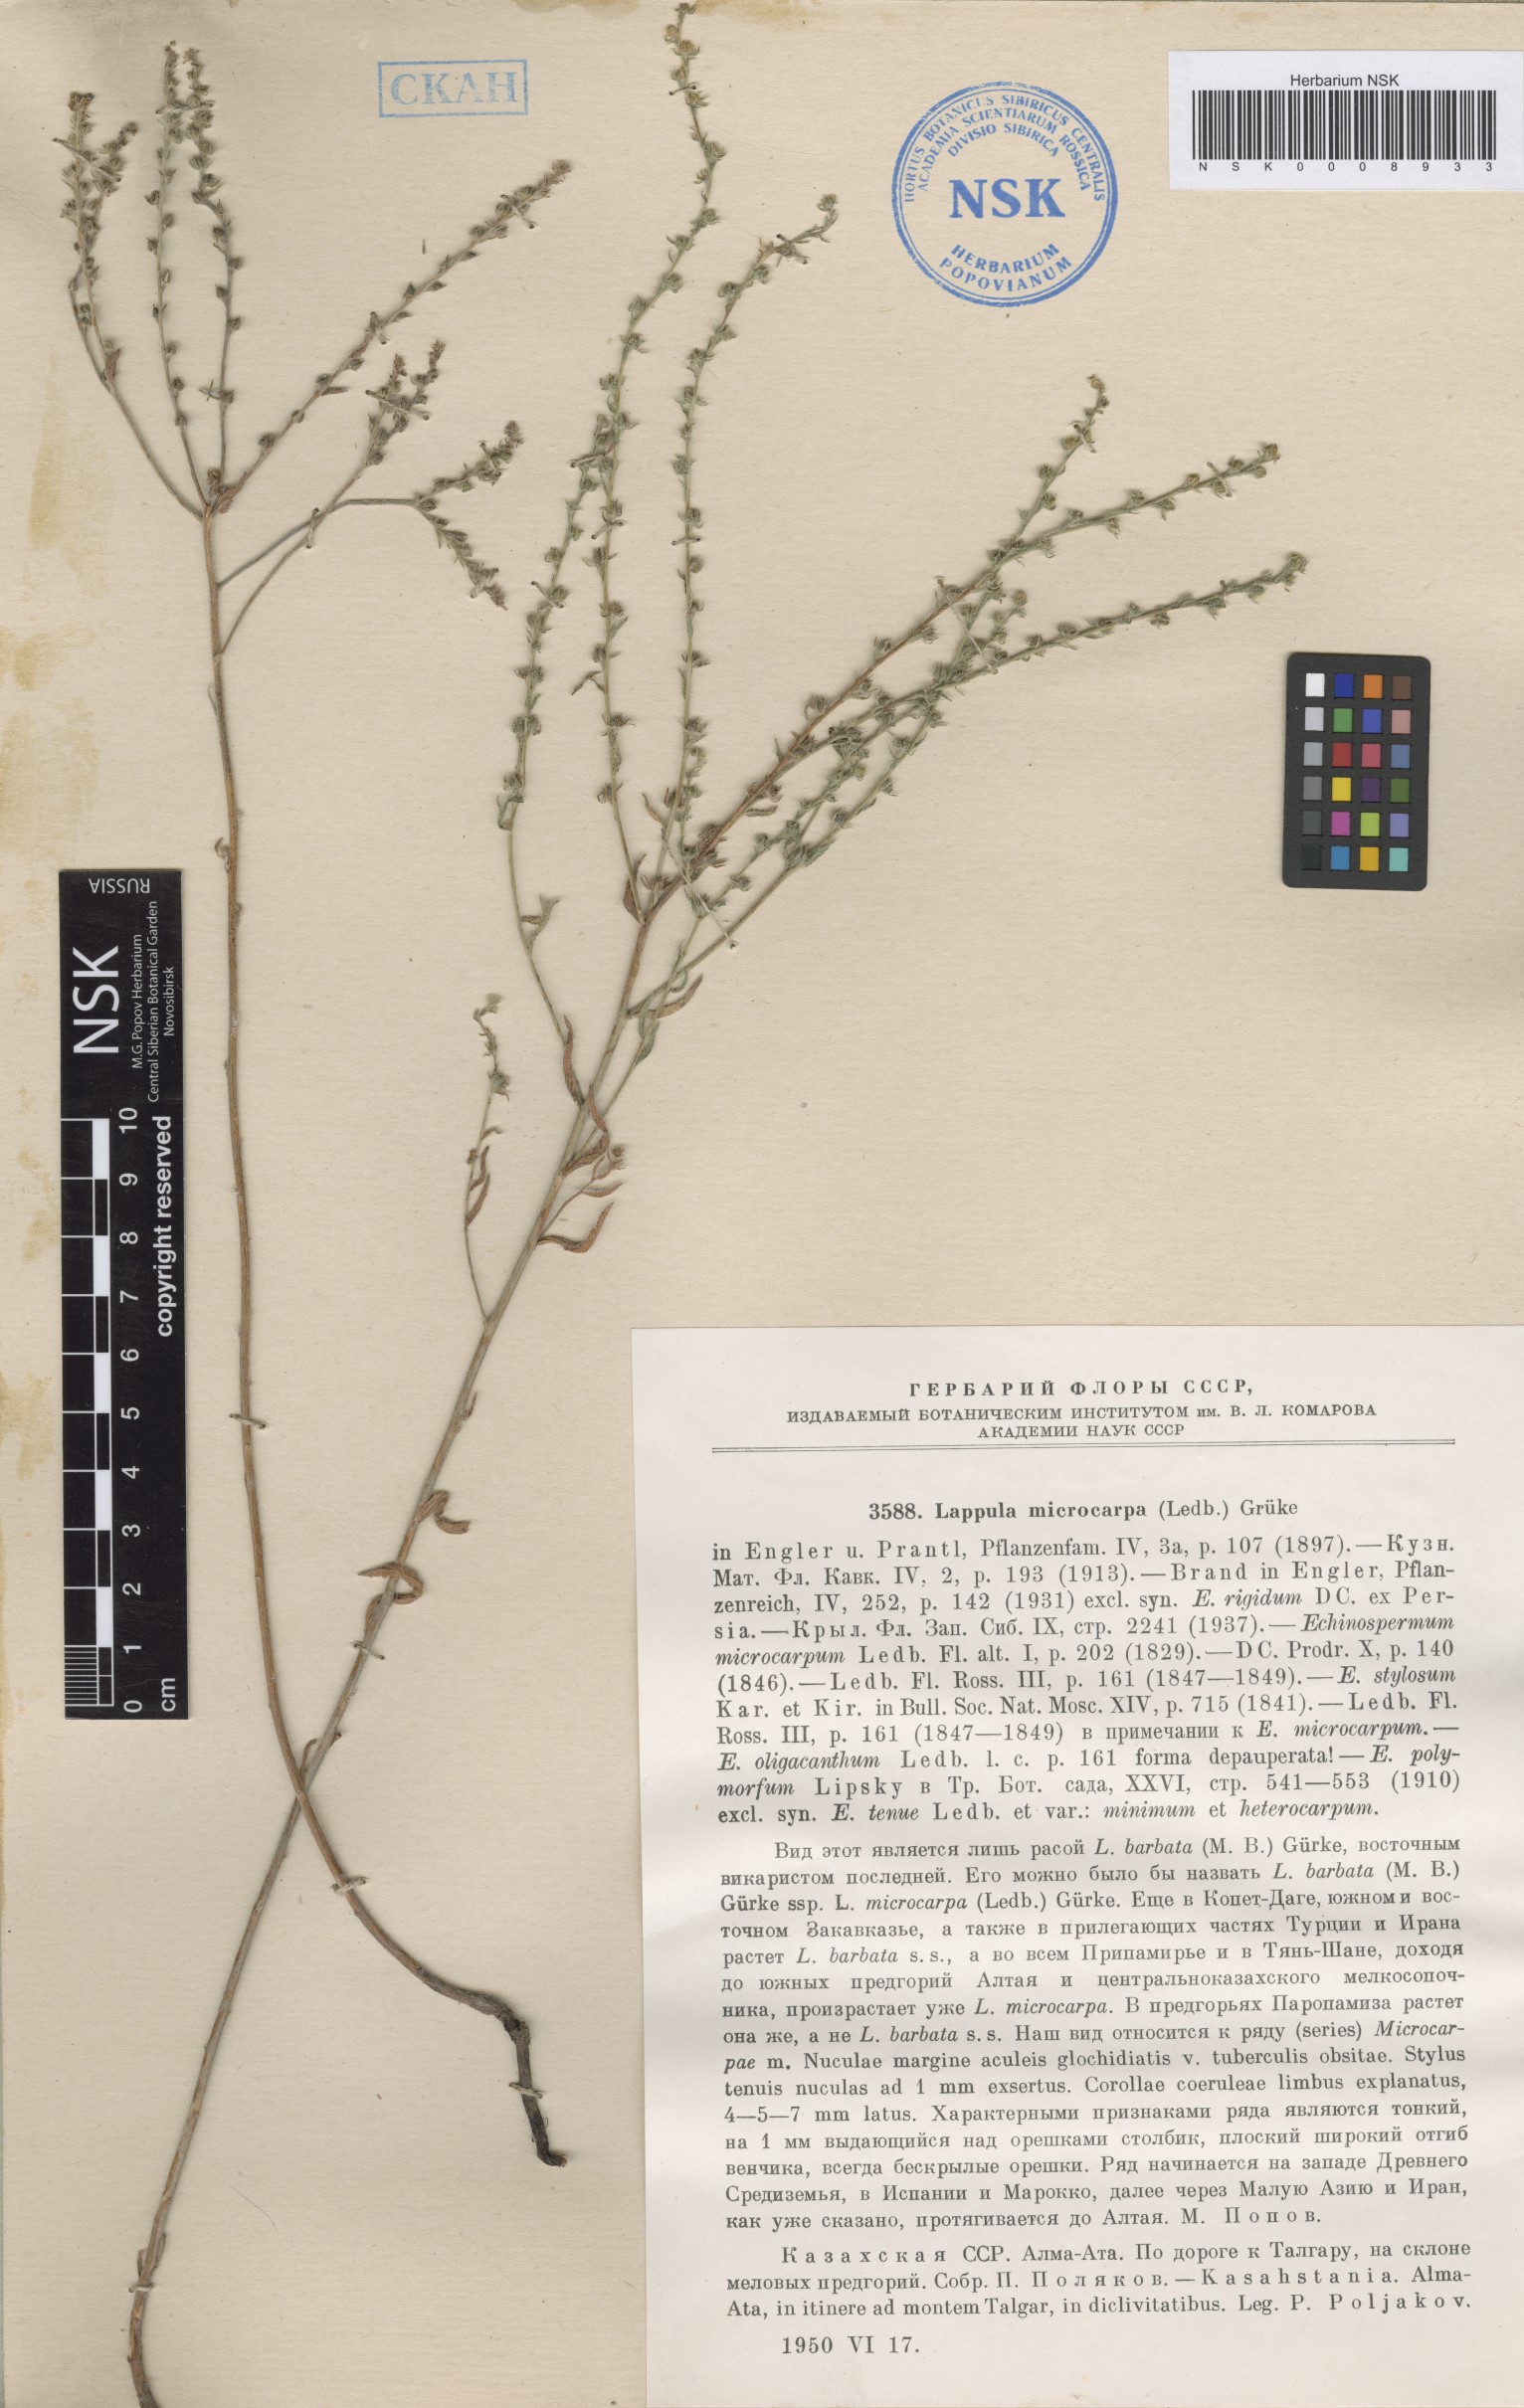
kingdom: Plantae
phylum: Tracheophyta
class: Magnoliopsida
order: Boraginales
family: Boraginaceae
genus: Lappula
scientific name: Lappula microcarpa
